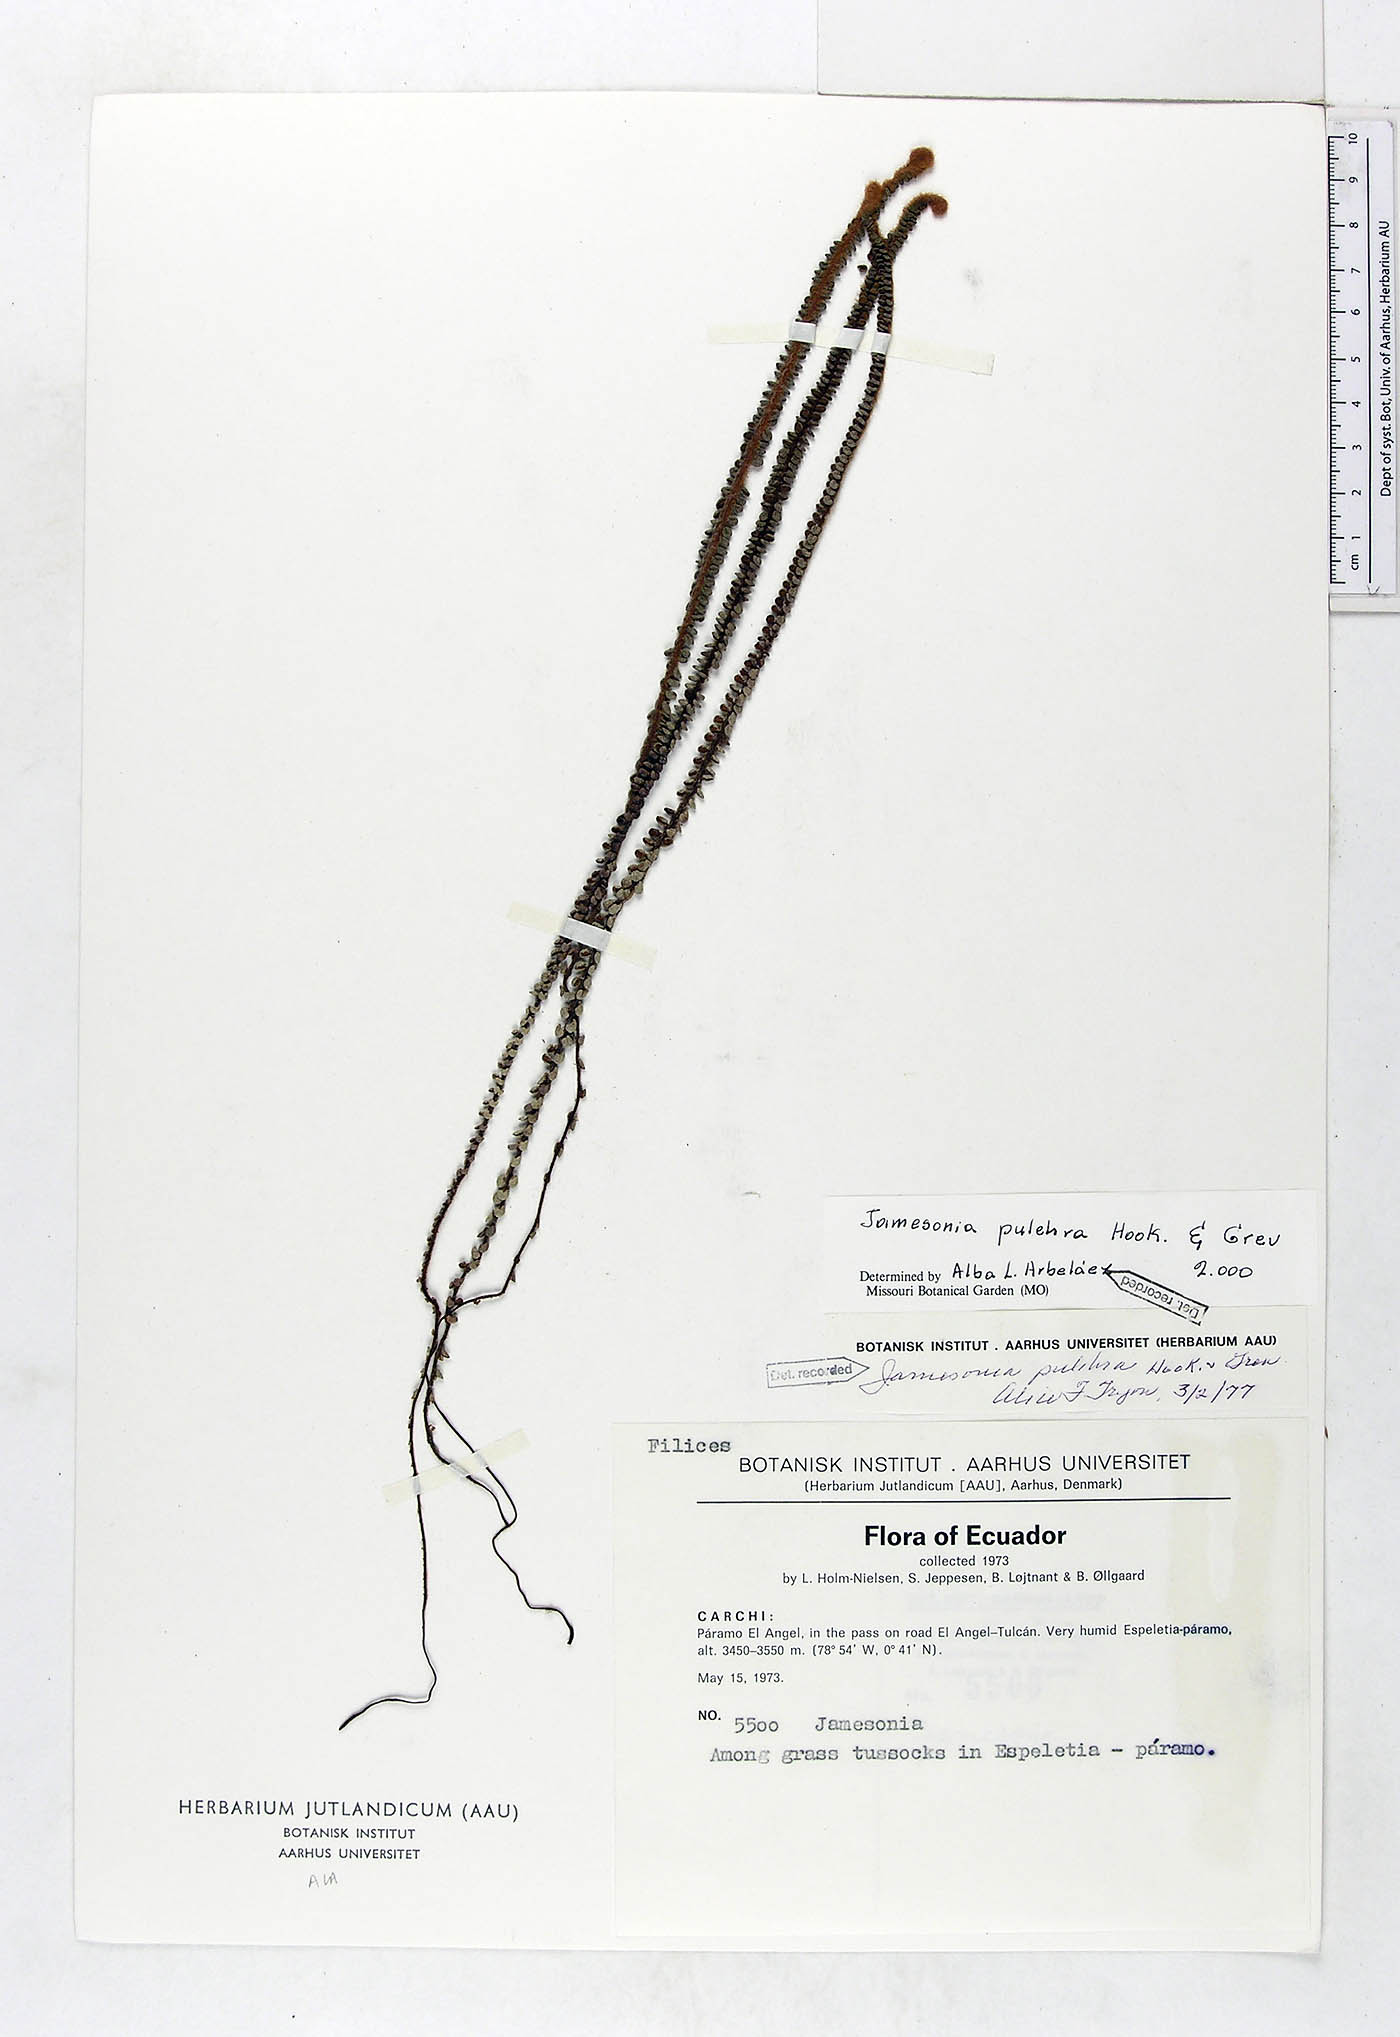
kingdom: Plantae
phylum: Tracheophyta
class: Polypodiopsida
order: Polypodiales
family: Pteridaceae
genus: Jamesonia
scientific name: Jamesonia pulchra
